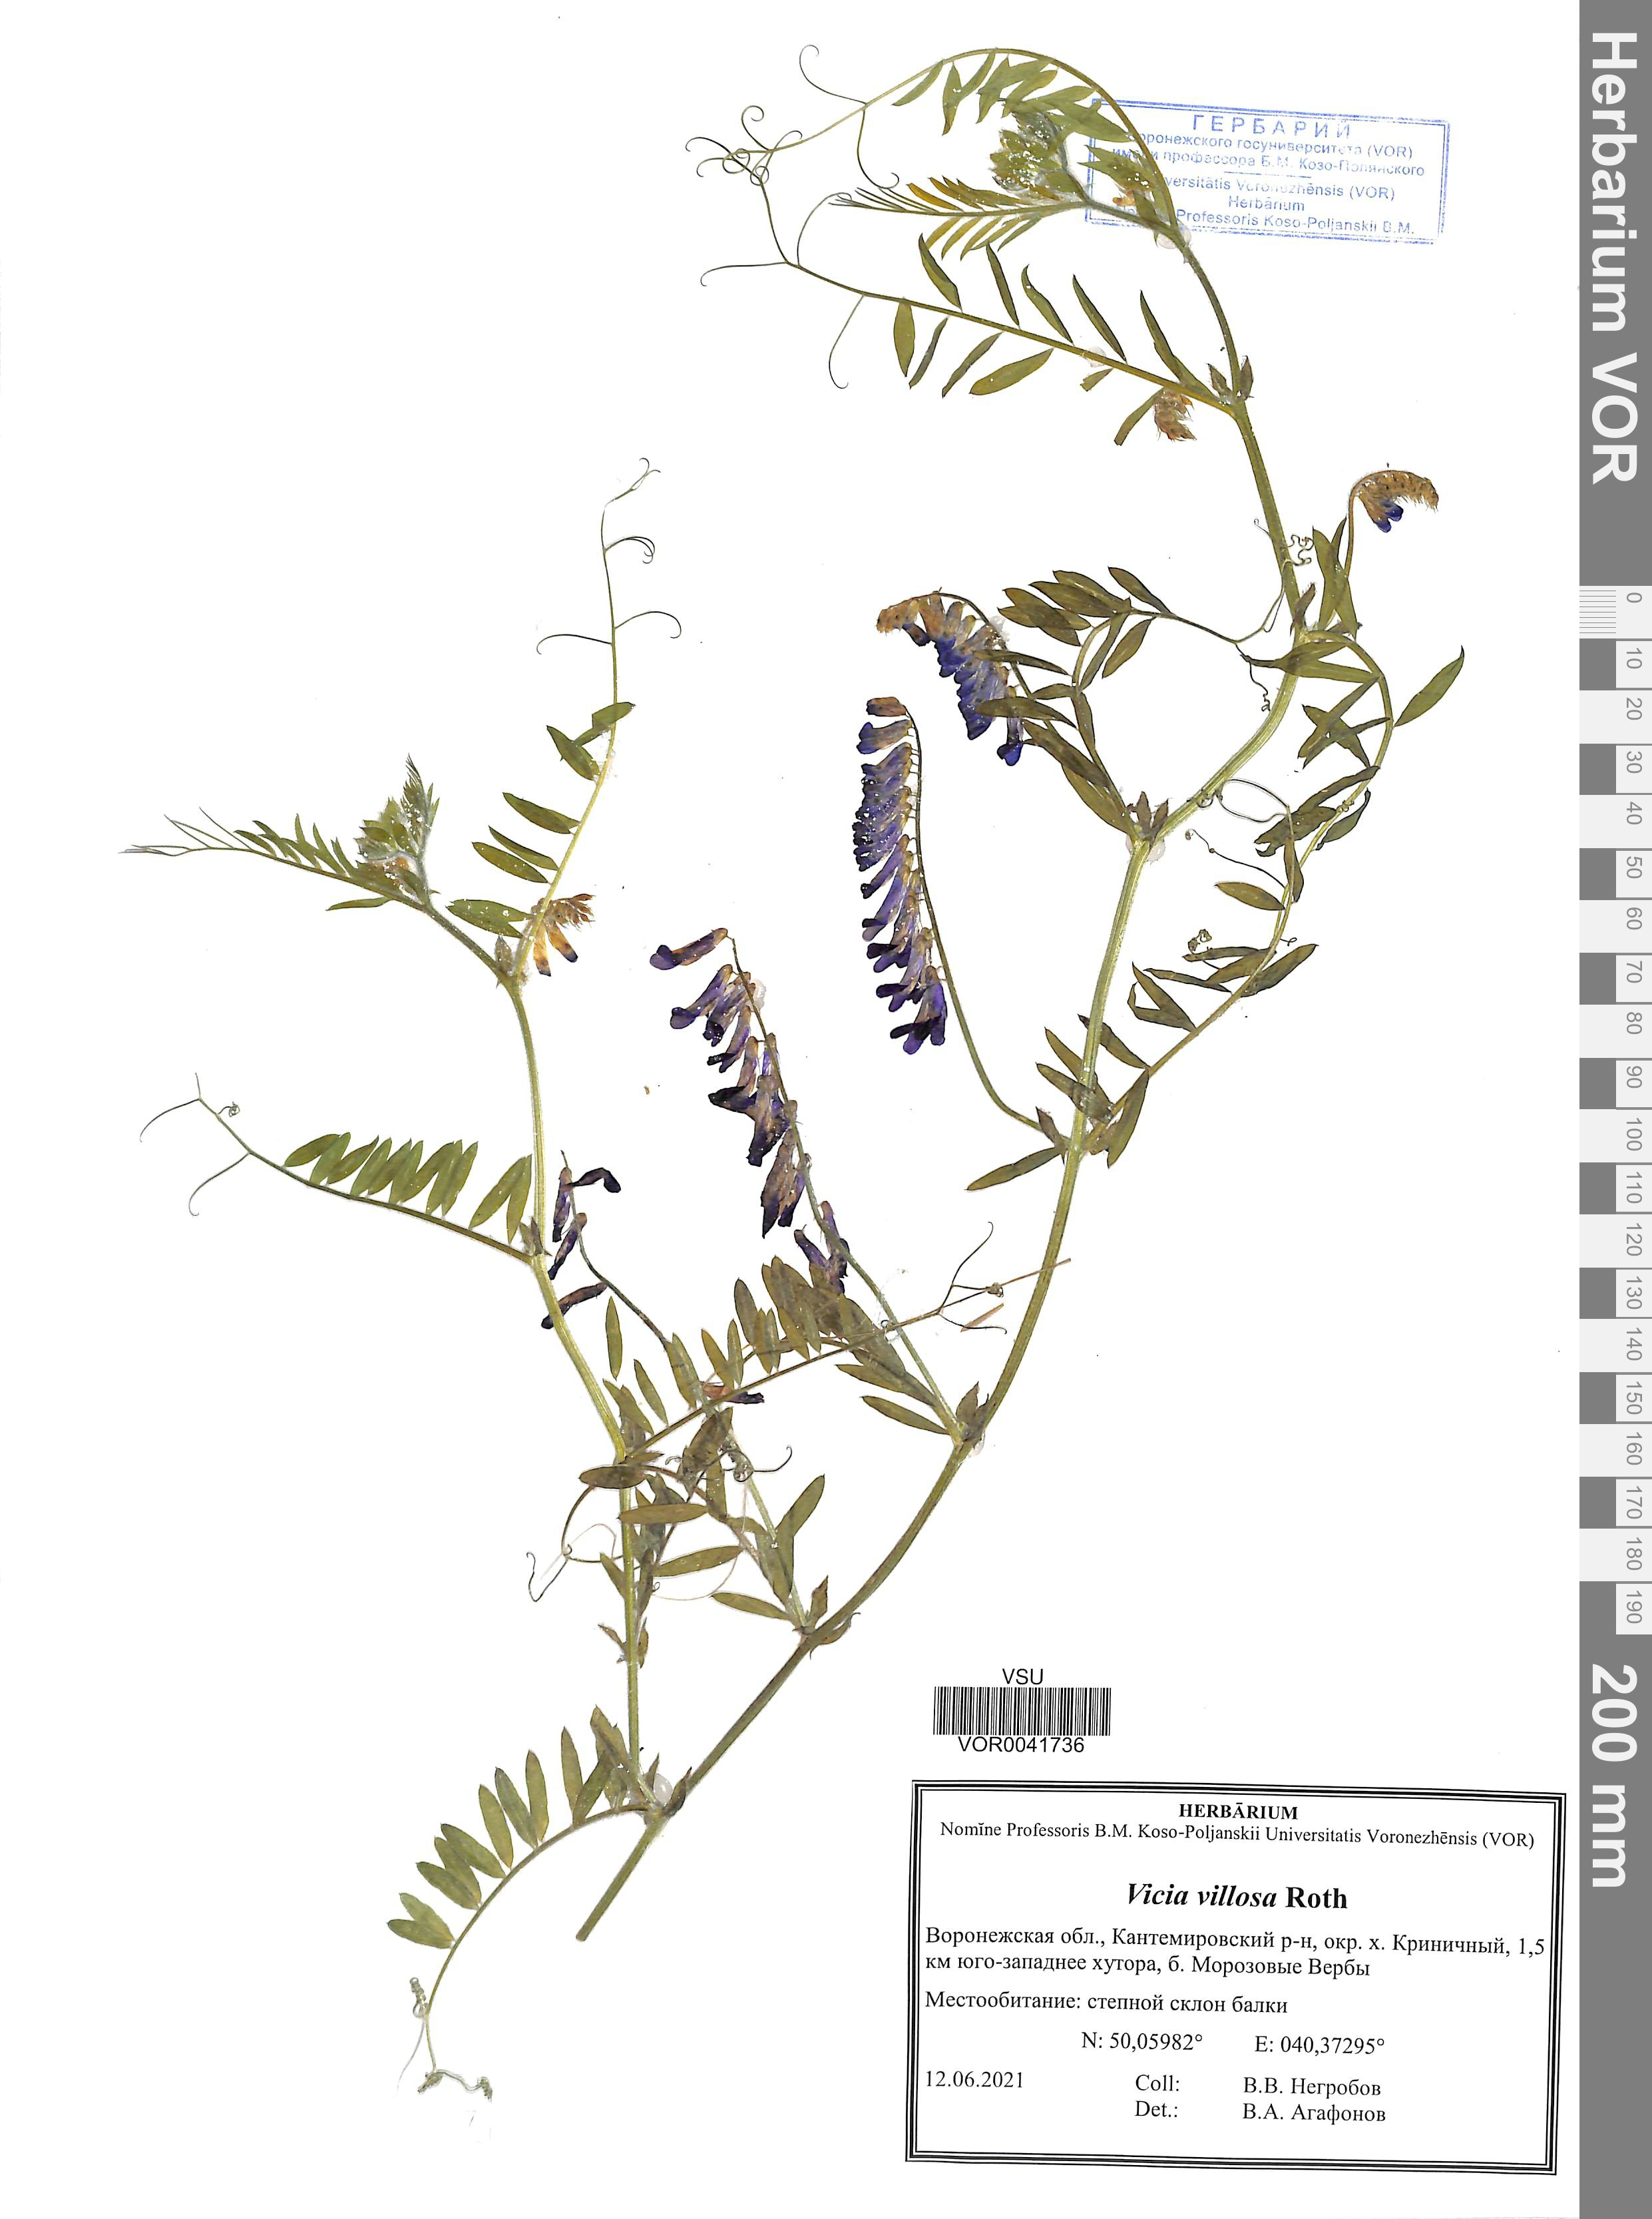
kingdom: Plantae
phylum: Tracheophyta
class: Magnoliopsida
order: Fabales
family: Fabaceae
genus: Vicia
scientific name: Vicia villosa
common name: Fodder vetch
